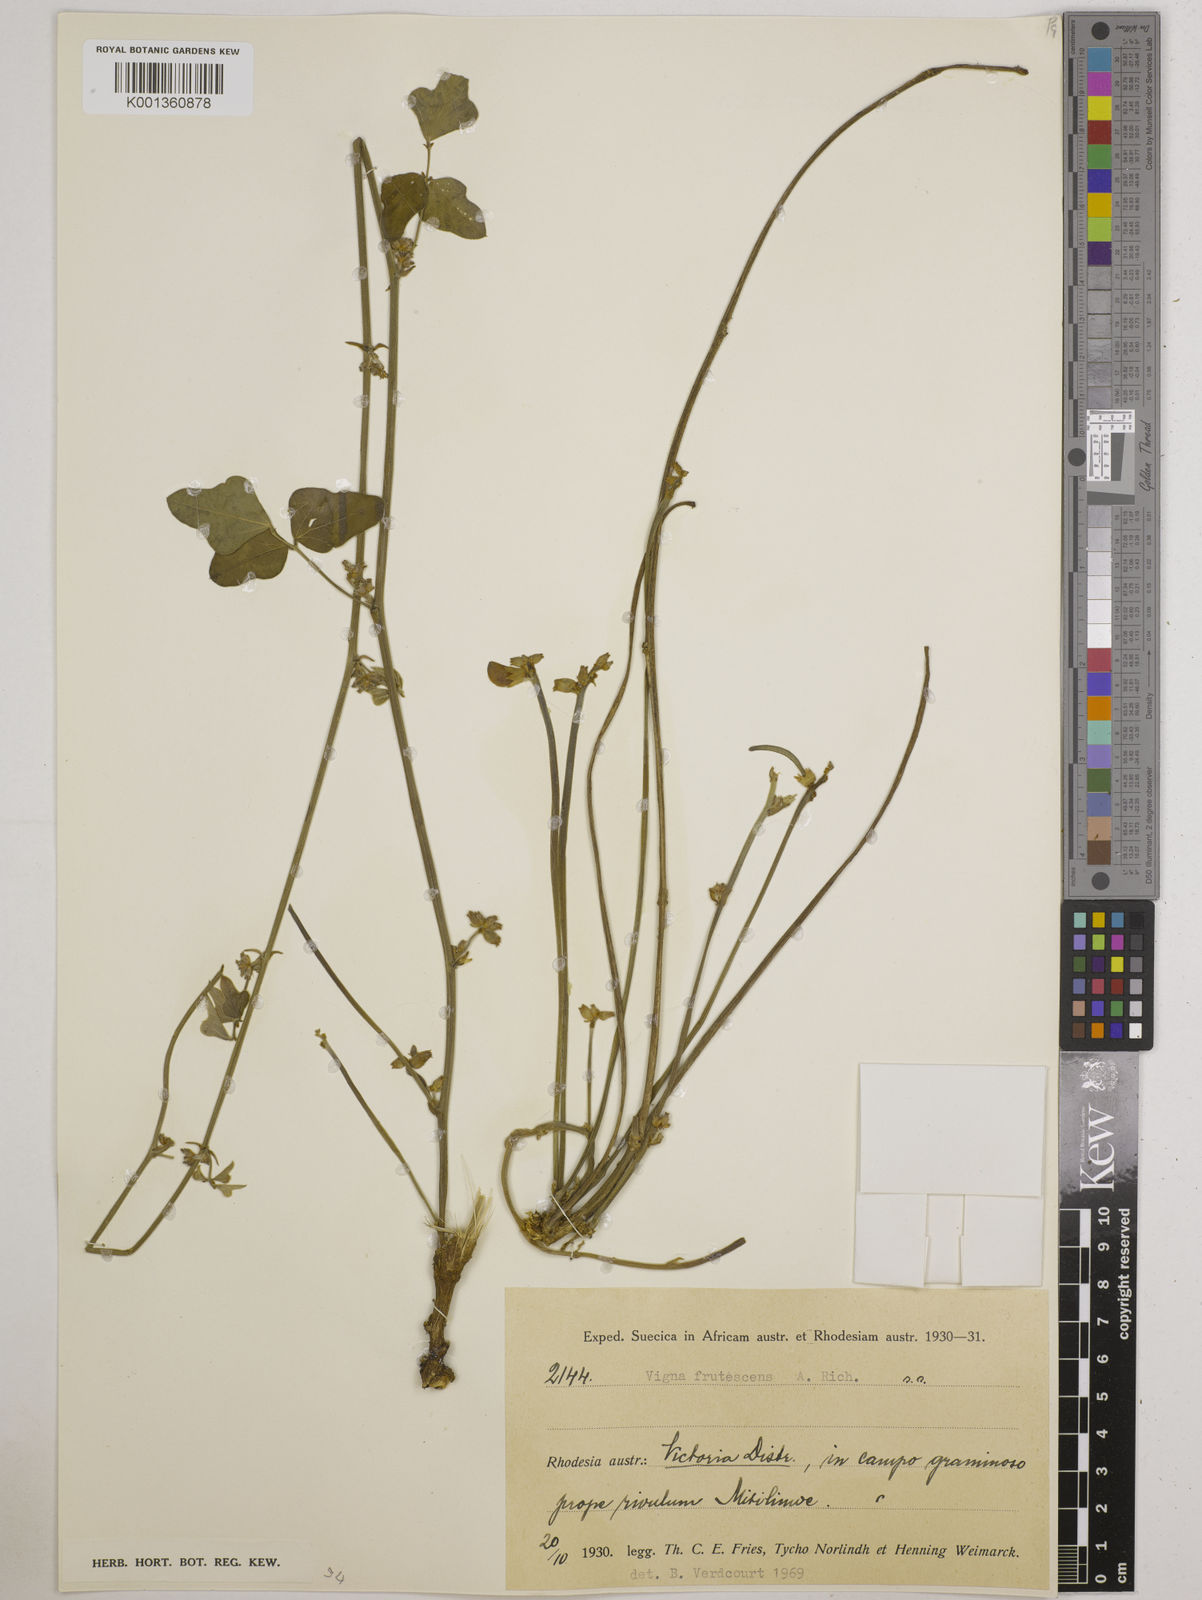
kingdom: Plantae
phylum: Tracheophyta
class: Magnoliopsida
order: Fabales
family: Fabaceae
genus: Vigna
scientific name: Vigna
